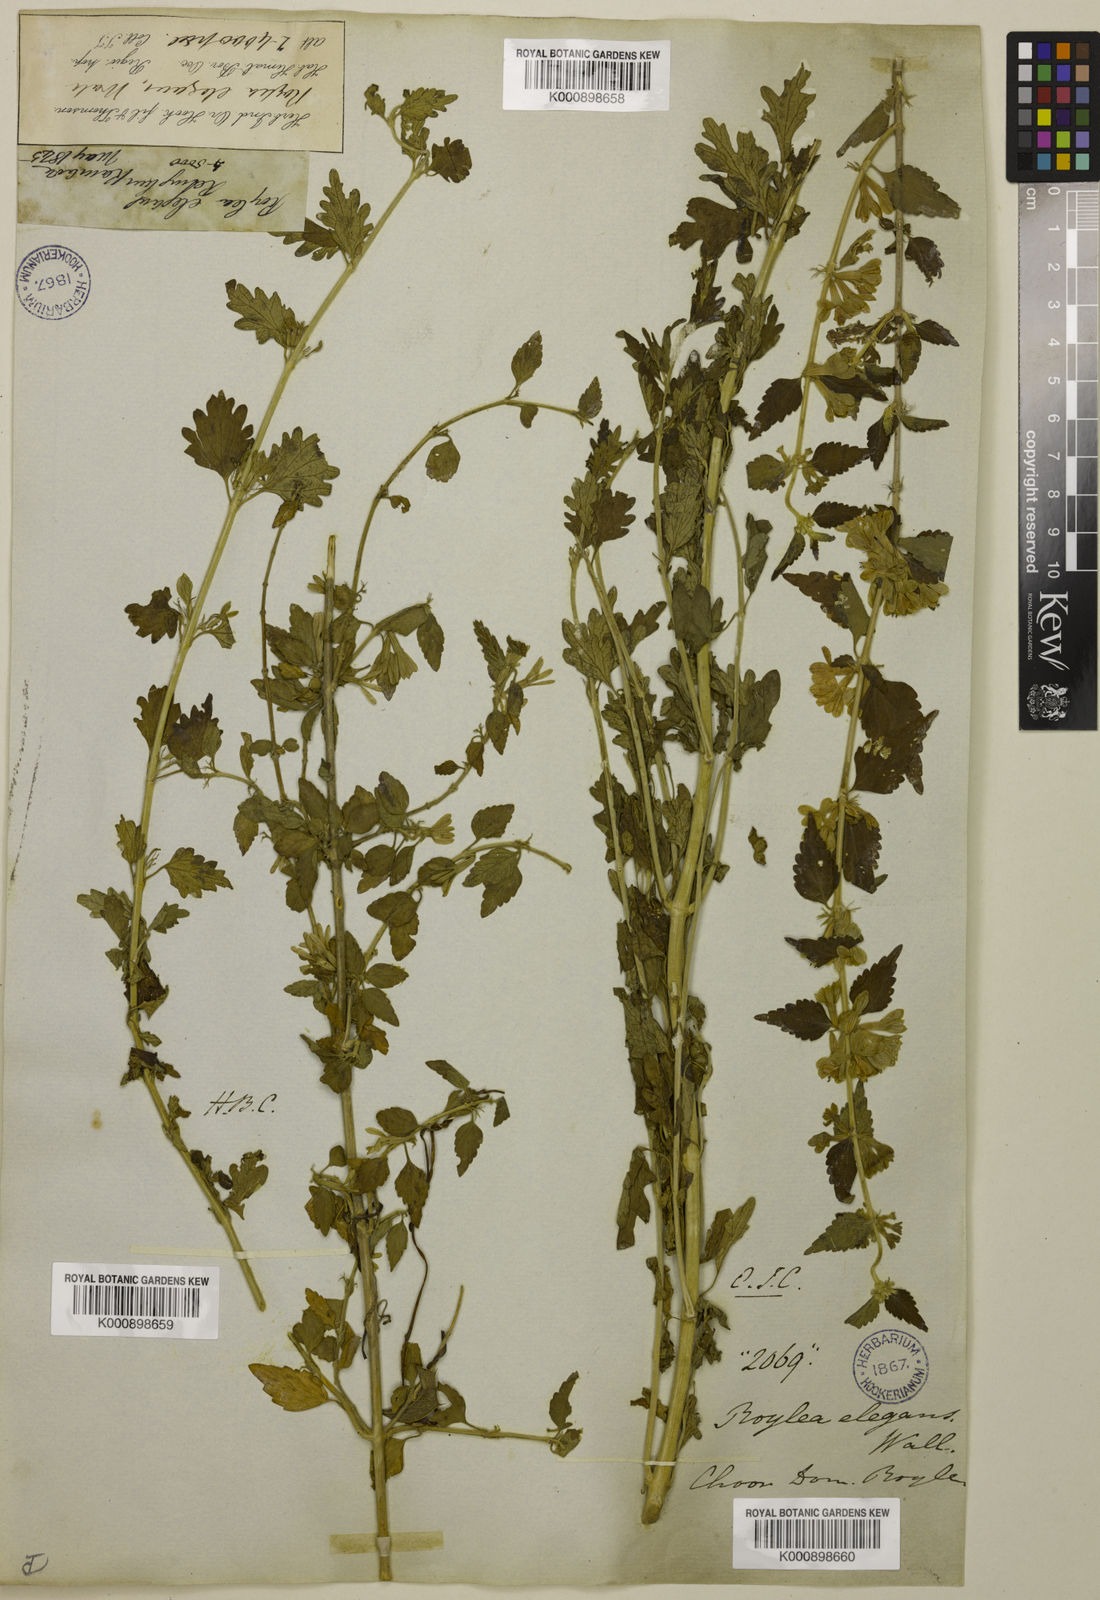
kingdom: Plantae
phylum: Tracheophyta
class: Magnoliopsida
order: Lamiales
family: Lamiaceae
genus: Roylea
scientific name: Roylea
